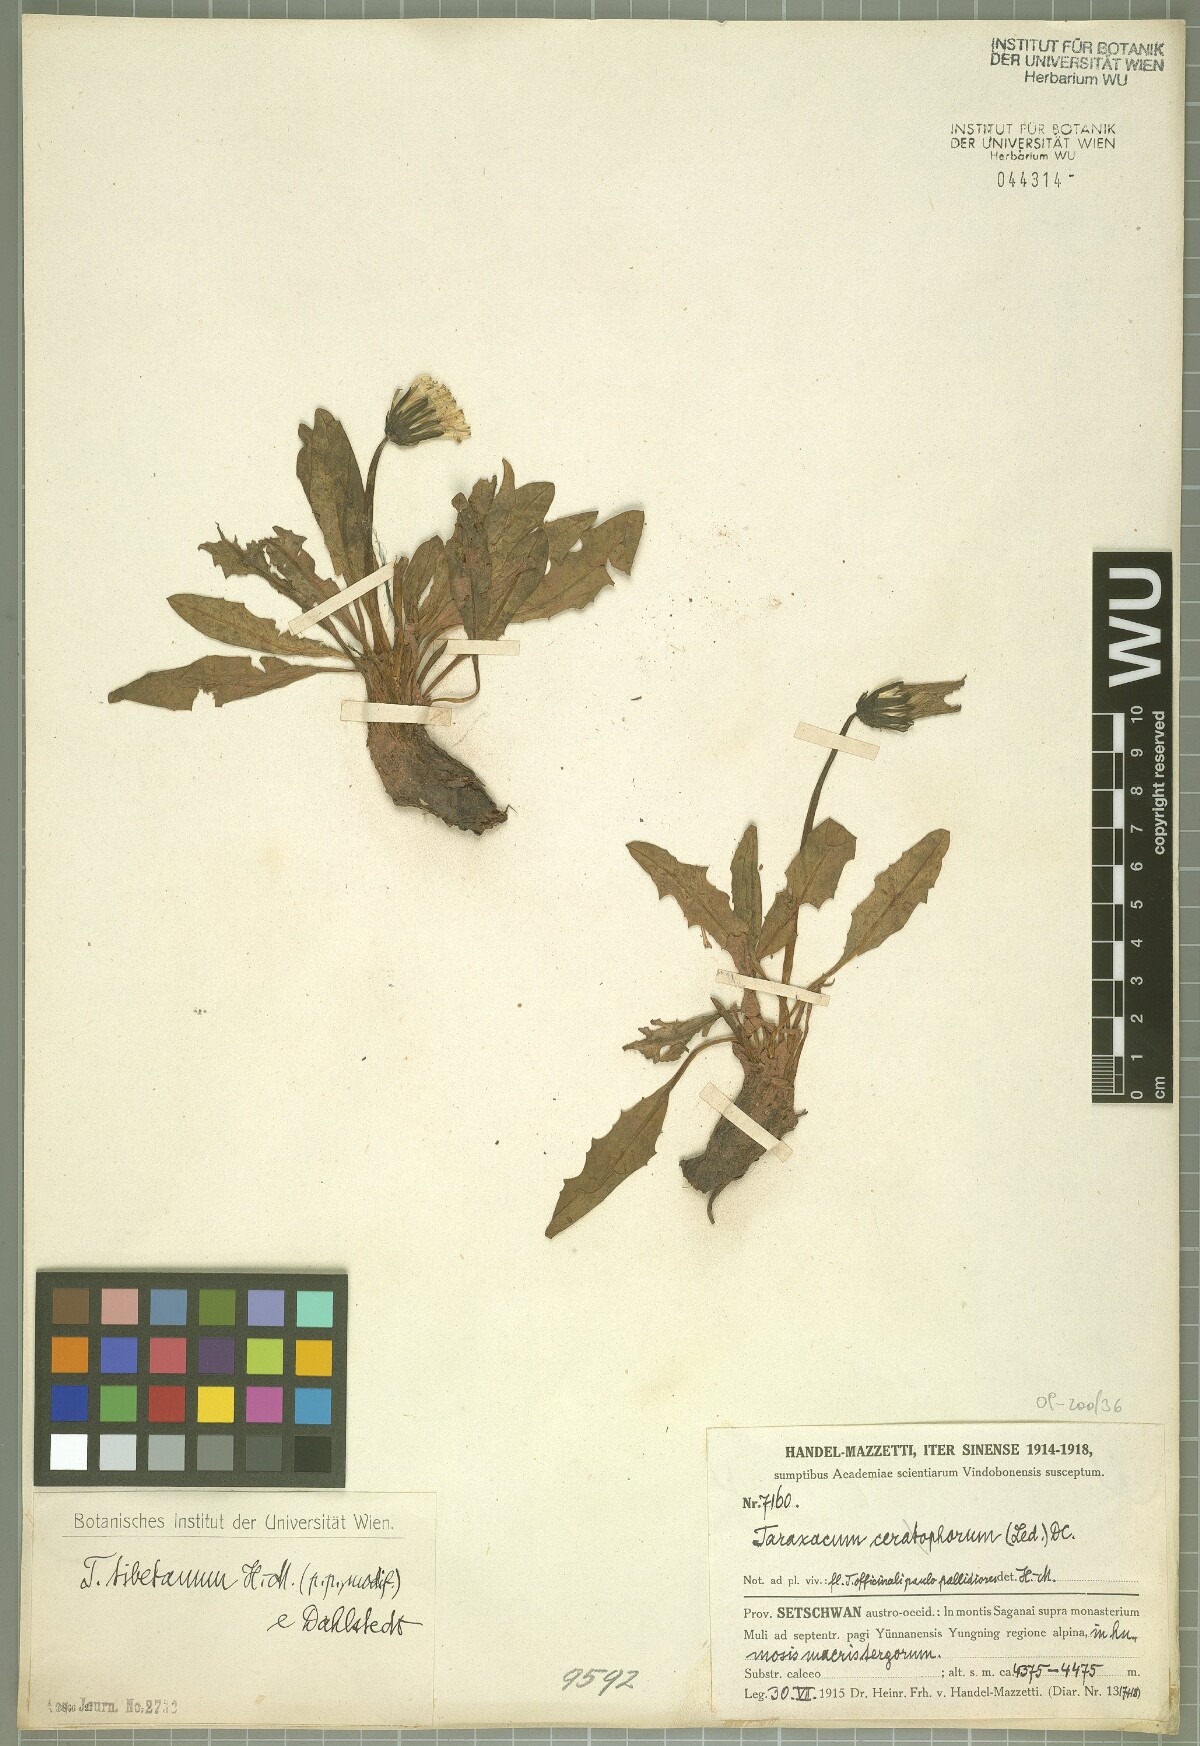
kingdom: Plantae
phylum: Tracheophyta
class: Magnoliopsida
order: Asterales
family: Asteraceae
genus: Taraxacum
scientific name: Taraxacum tibetanum
